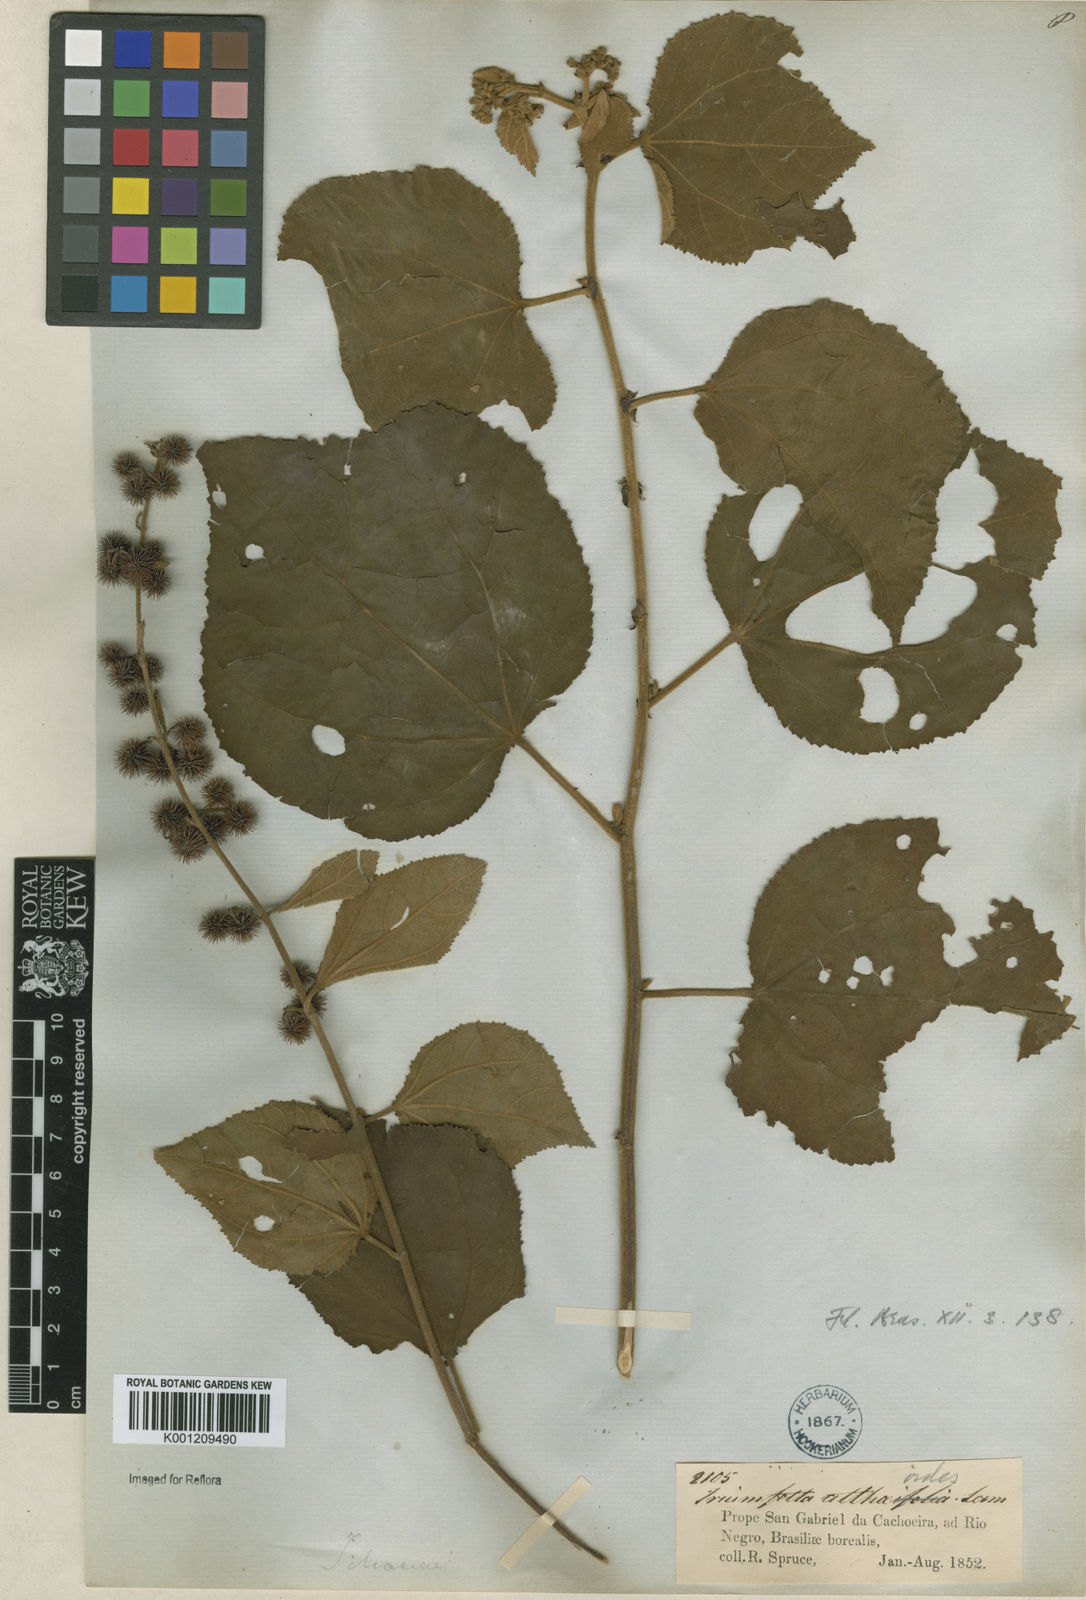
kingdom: Plantae
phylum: Tracheophyta
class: Magnoliopsida
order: Malvales
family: Malvaceae
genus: Triumfetta
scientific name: Triumfetta althaeoides
